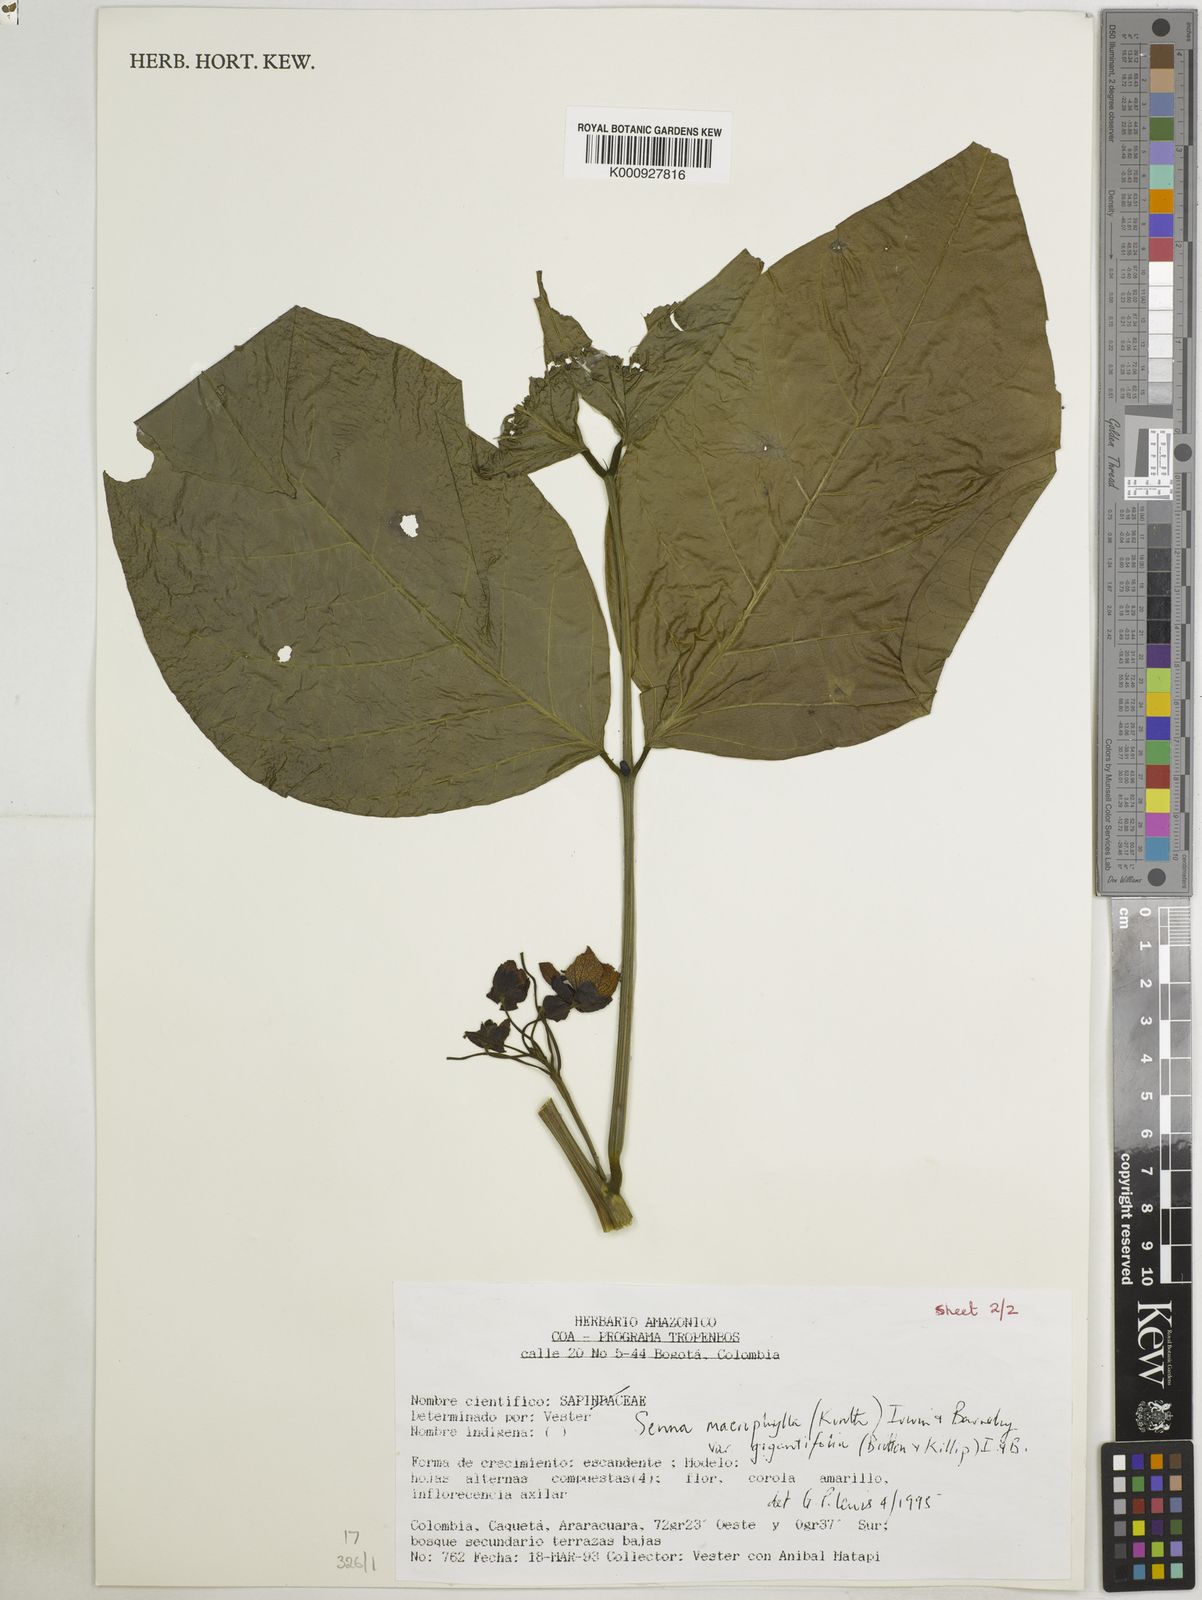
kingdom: Plantae
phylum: Tracheophyta
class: Magnoliopsida
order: Fabales
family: Fabaceae
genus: Senna
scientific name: Senna macrophylla
